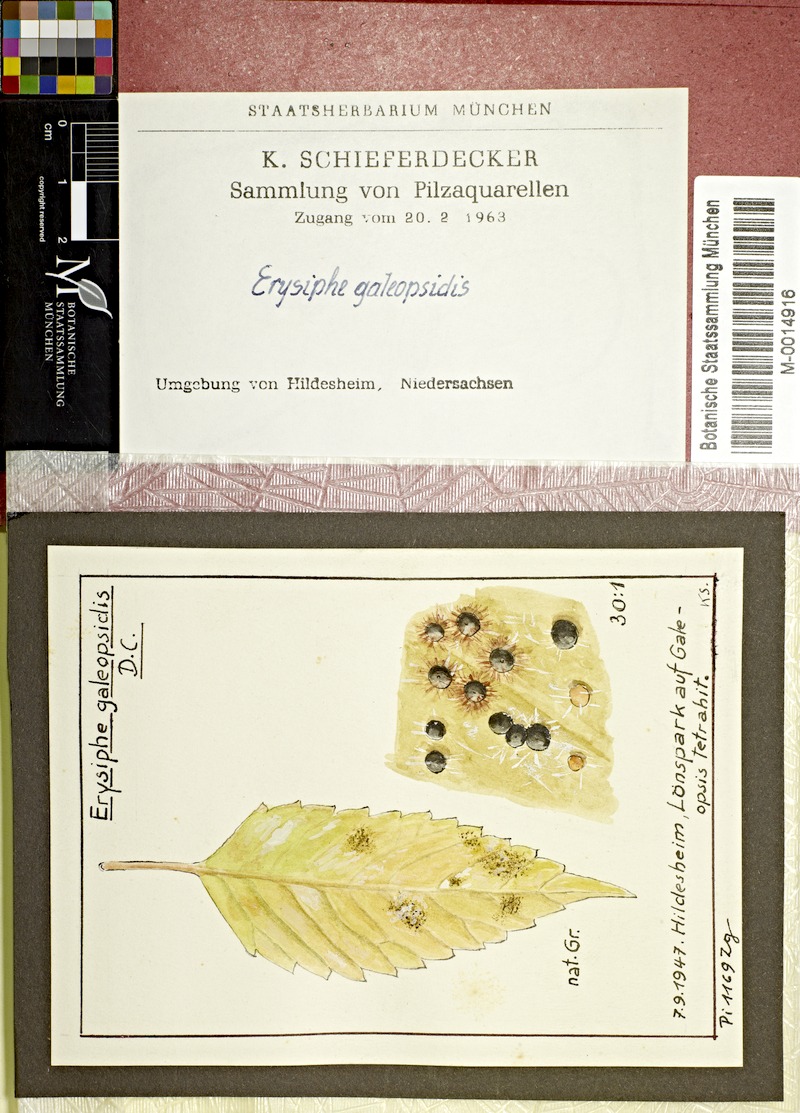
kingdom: Fungi
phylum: Ascomycota
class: Leotiomycetes
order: Helotiales
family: Erysiphaceae
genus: Neoerysiphe
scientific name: Neoerysiphe galeopsidis
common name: Mint mildew
